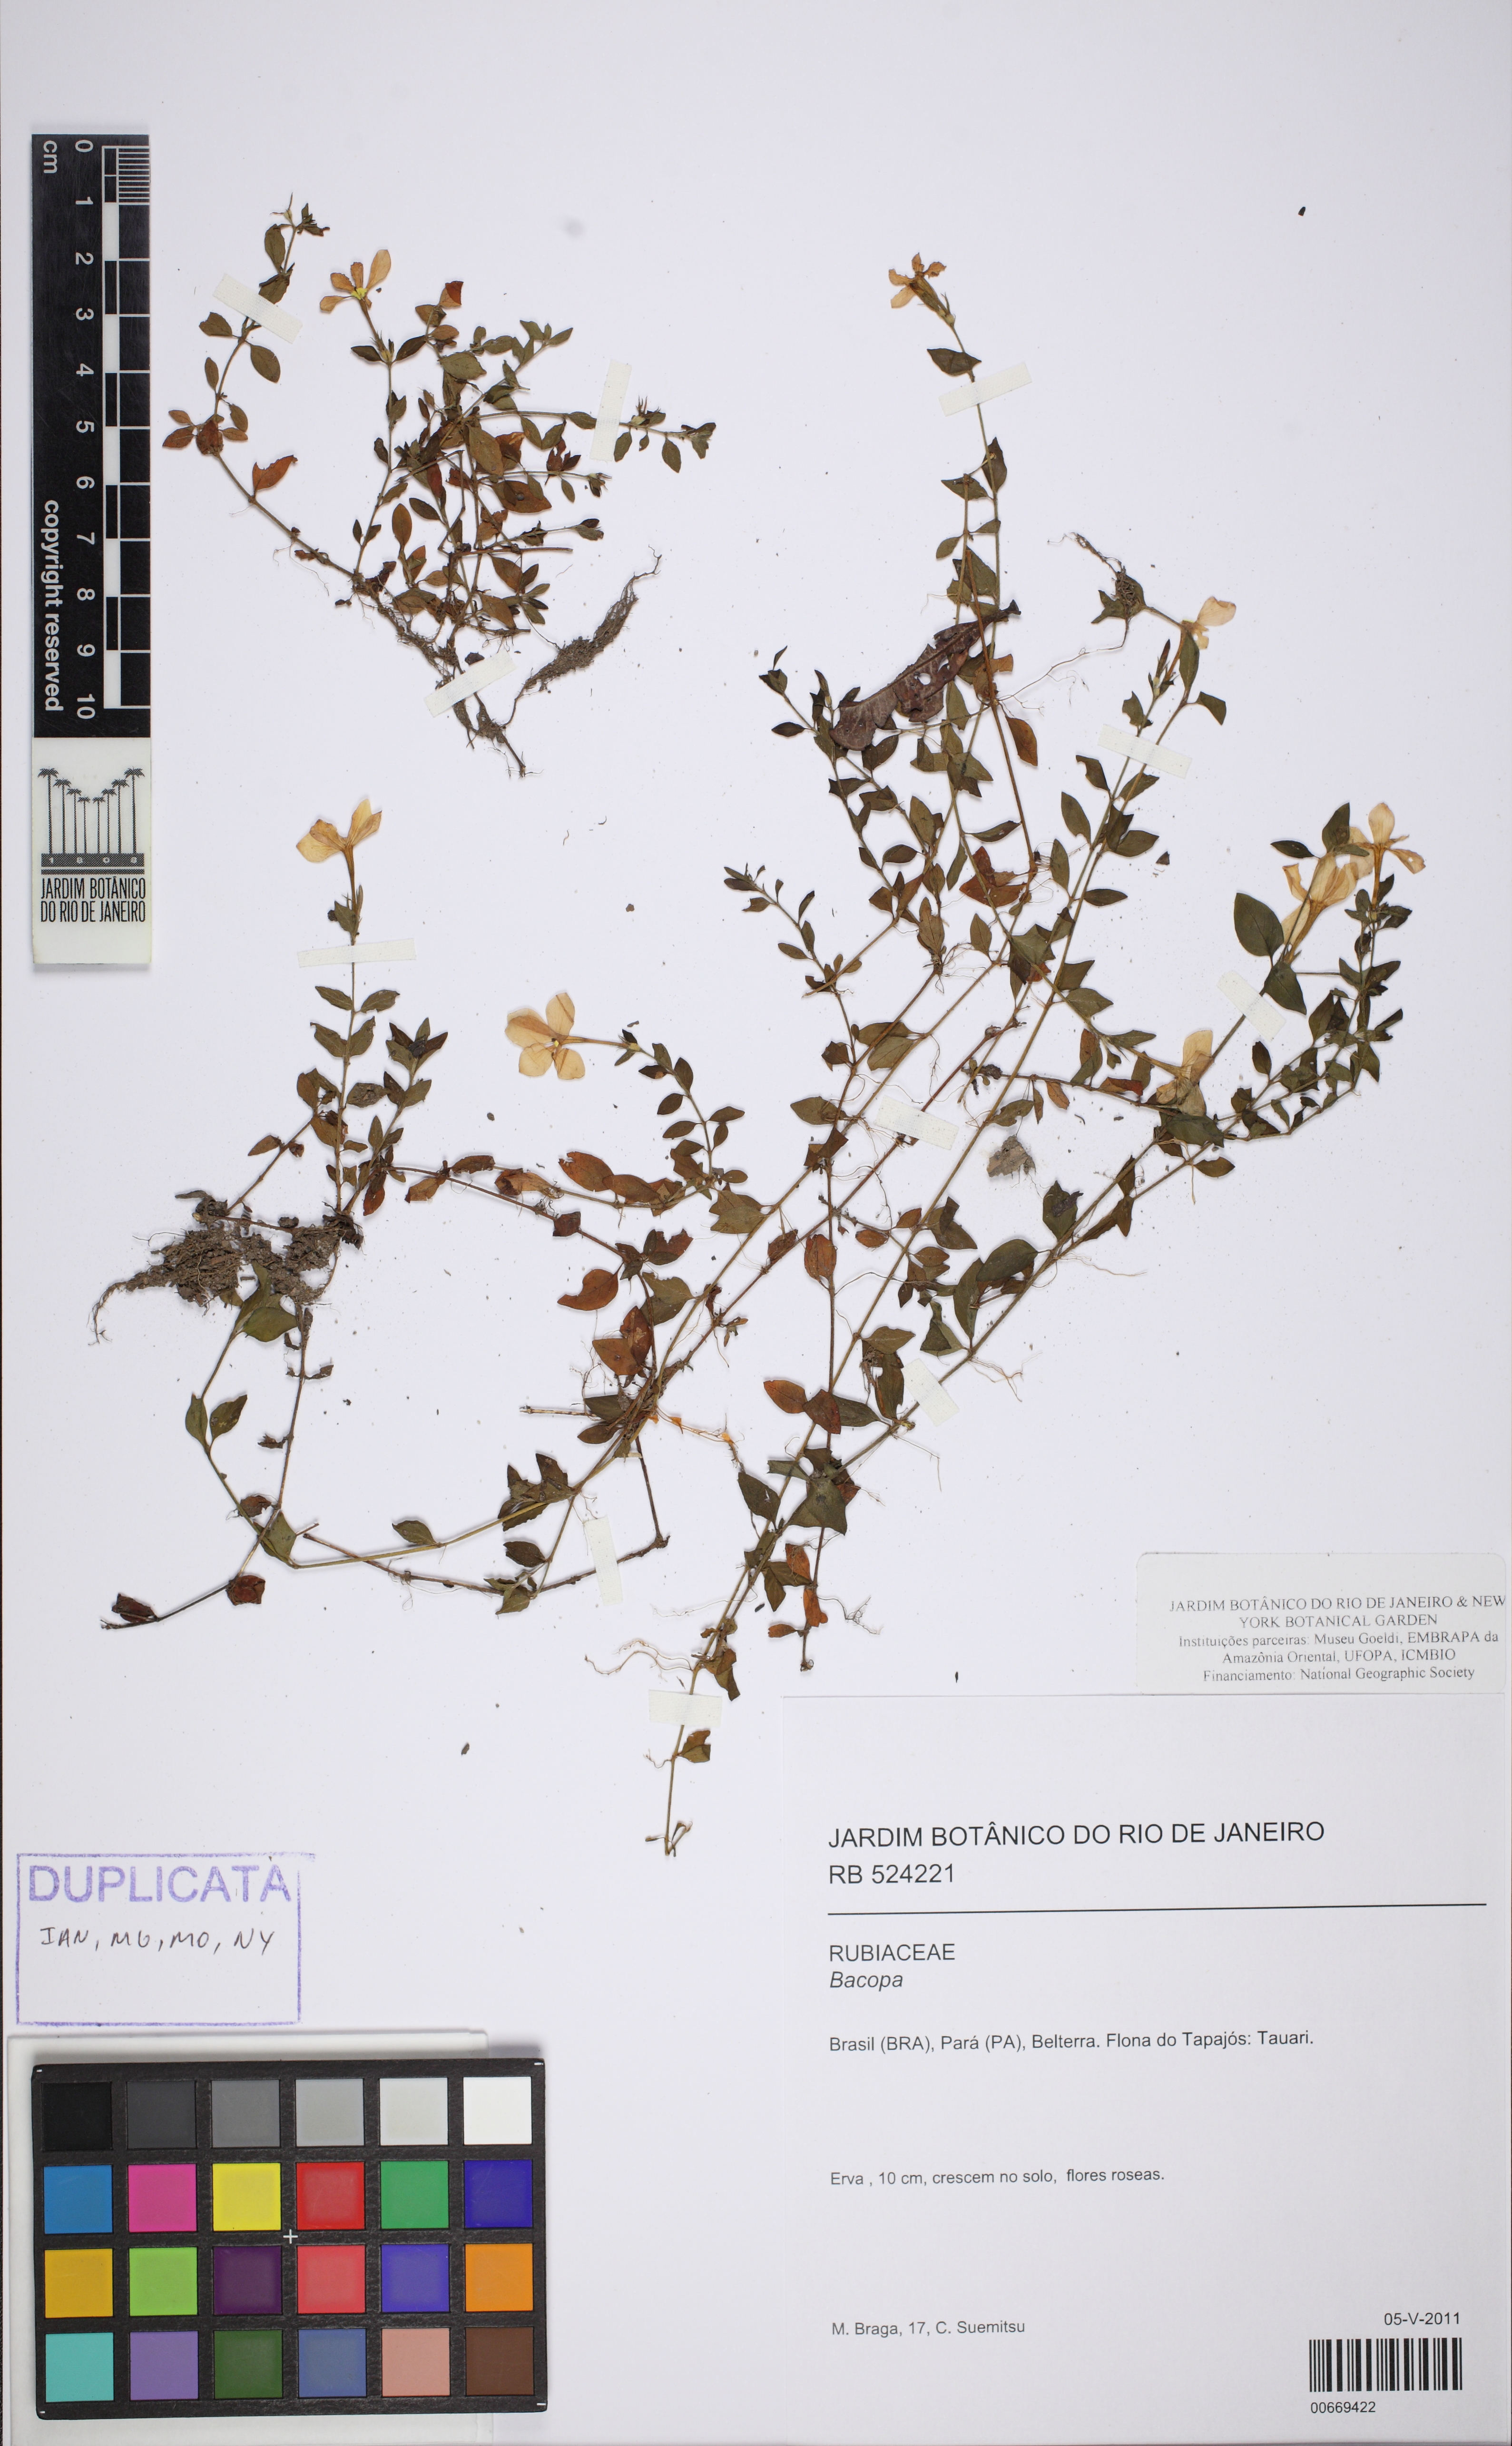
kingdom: Plantae
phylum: Tracheophyta
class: Magnoliopsida
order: Lamiales
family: Plantaginaceae
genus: Bacopa
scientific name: Bacopa
